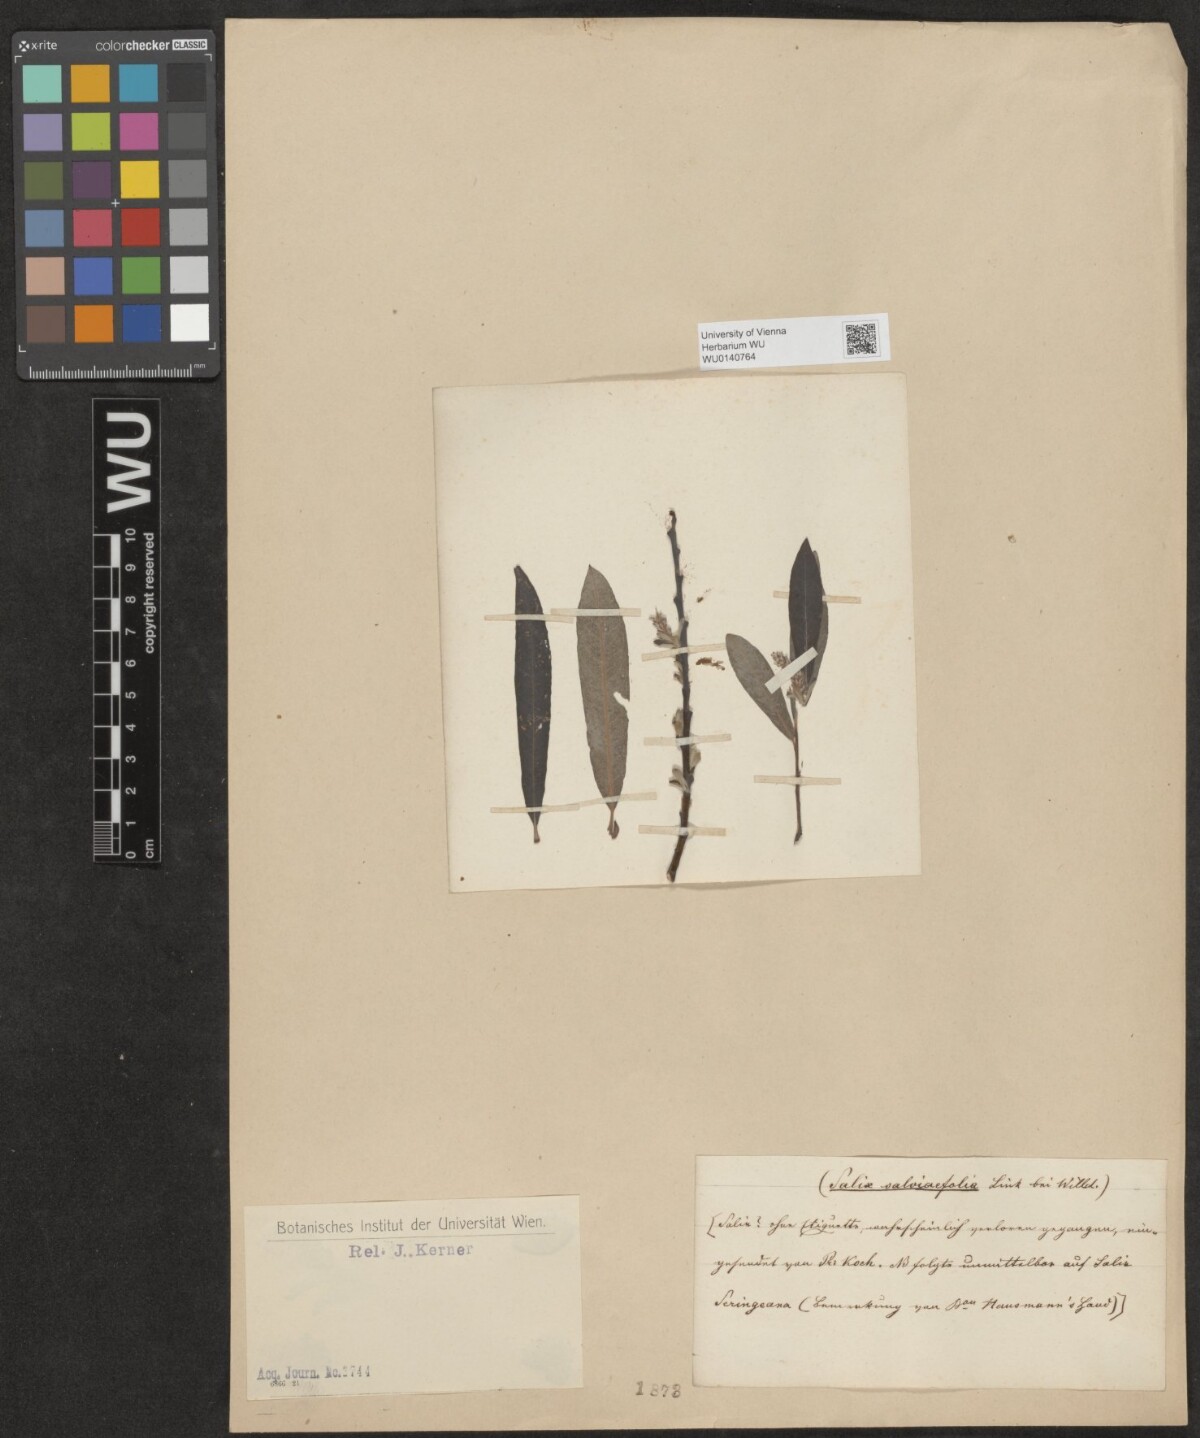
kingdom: Plantae
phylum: Tracheophyta
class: Magnoliopsida
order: Malpighiales
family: Salicaceae
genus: Salix
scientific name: Salix
